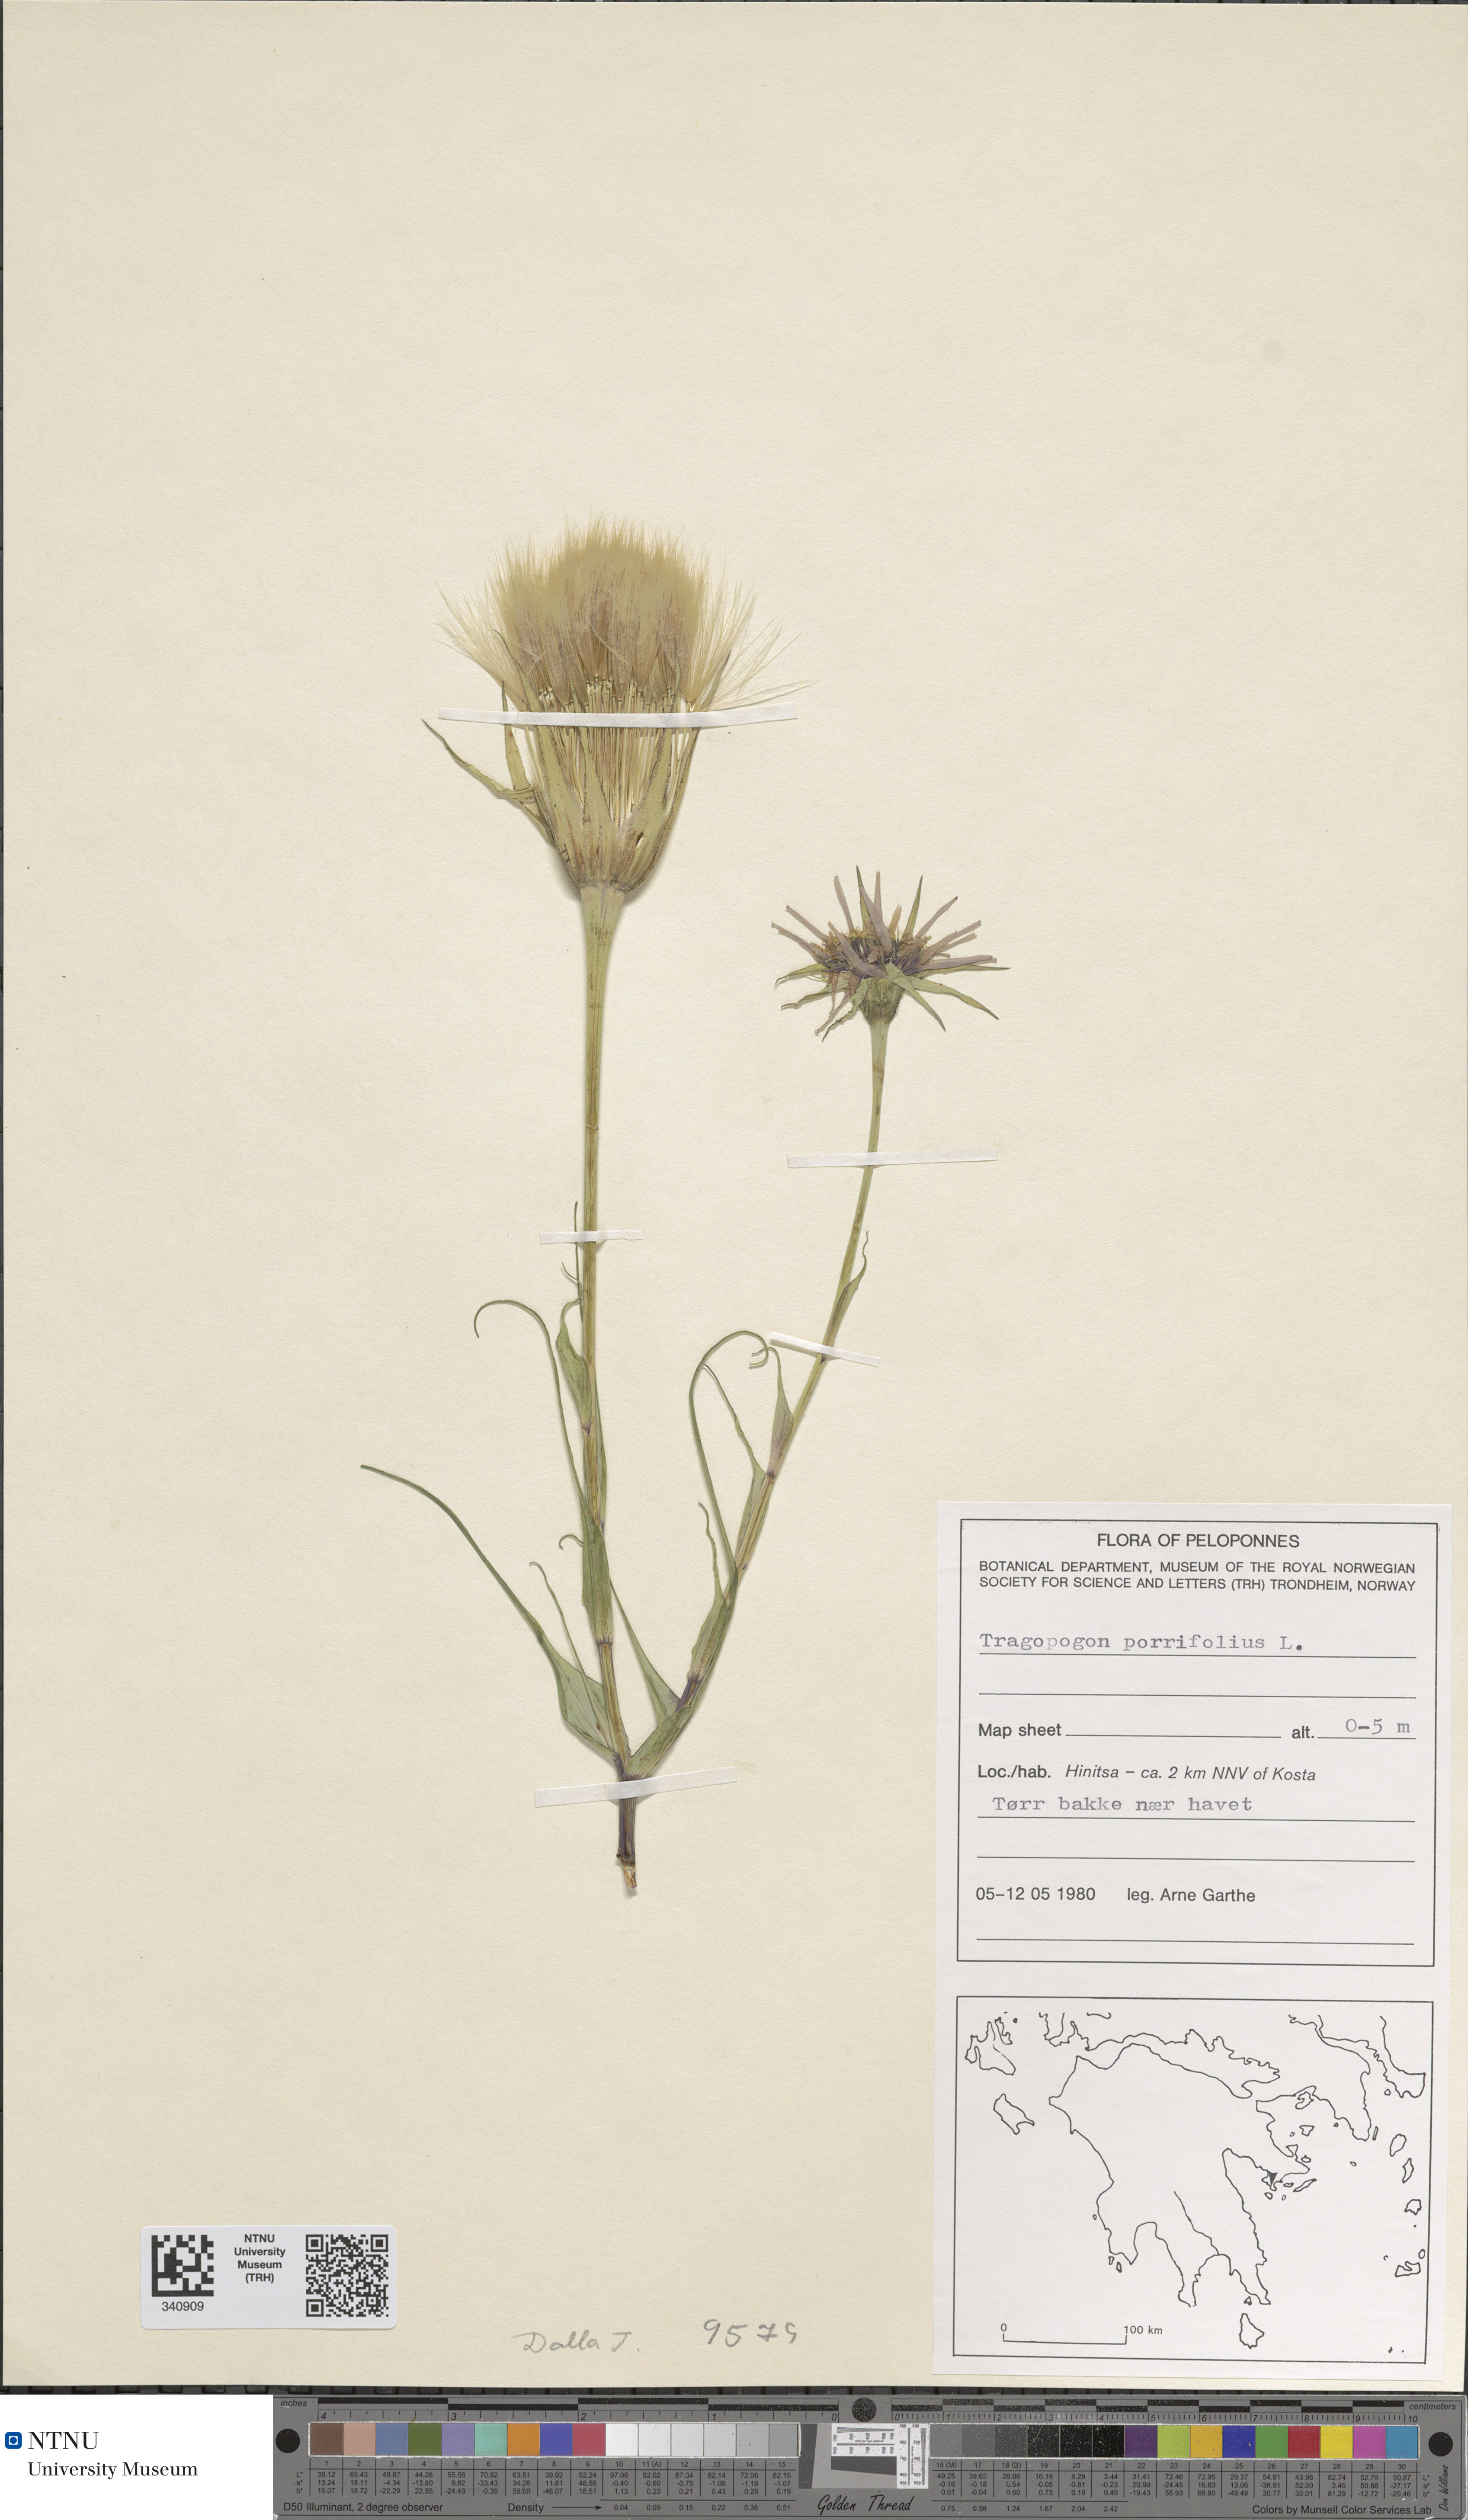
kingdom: Plantae
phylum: Tracheophyta
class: Magnoliopsida
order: Asterales
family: Asteraceae
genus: Tragopogon
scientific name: Tragopogon porrifolius
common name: Salsify
